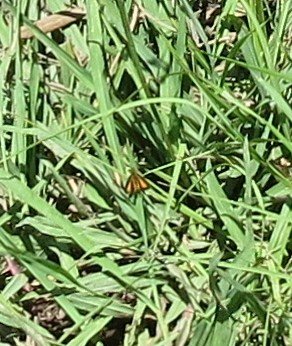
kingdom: Animalia
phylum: Arthropoda
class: Insecta
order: Lepidoptera
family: Hesperiidae
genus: Ancyloxypha
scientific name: Ancyloxypha numitor
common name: Least Skipper
